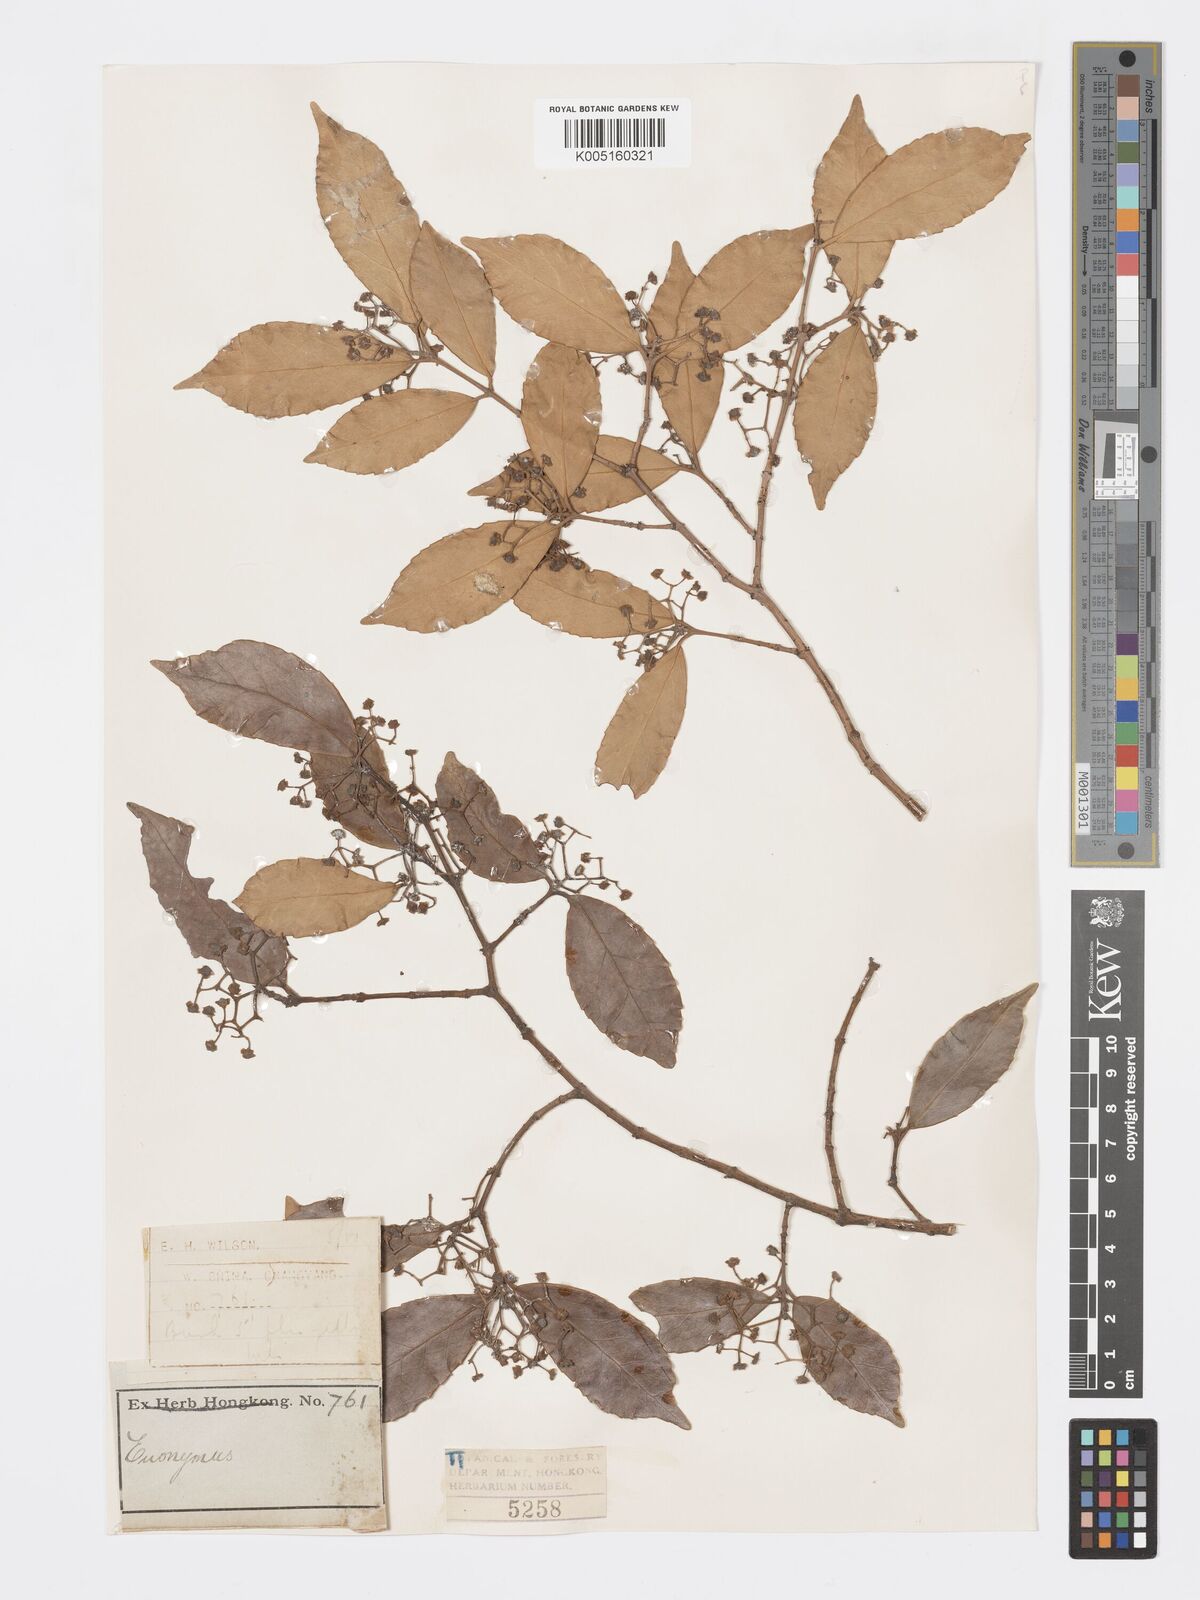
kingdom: Plantae
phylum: Tracheophyta
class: Magnoliopsida
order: Celastrales
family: Celastraceae
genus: Euonymus
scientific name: Euonymus
